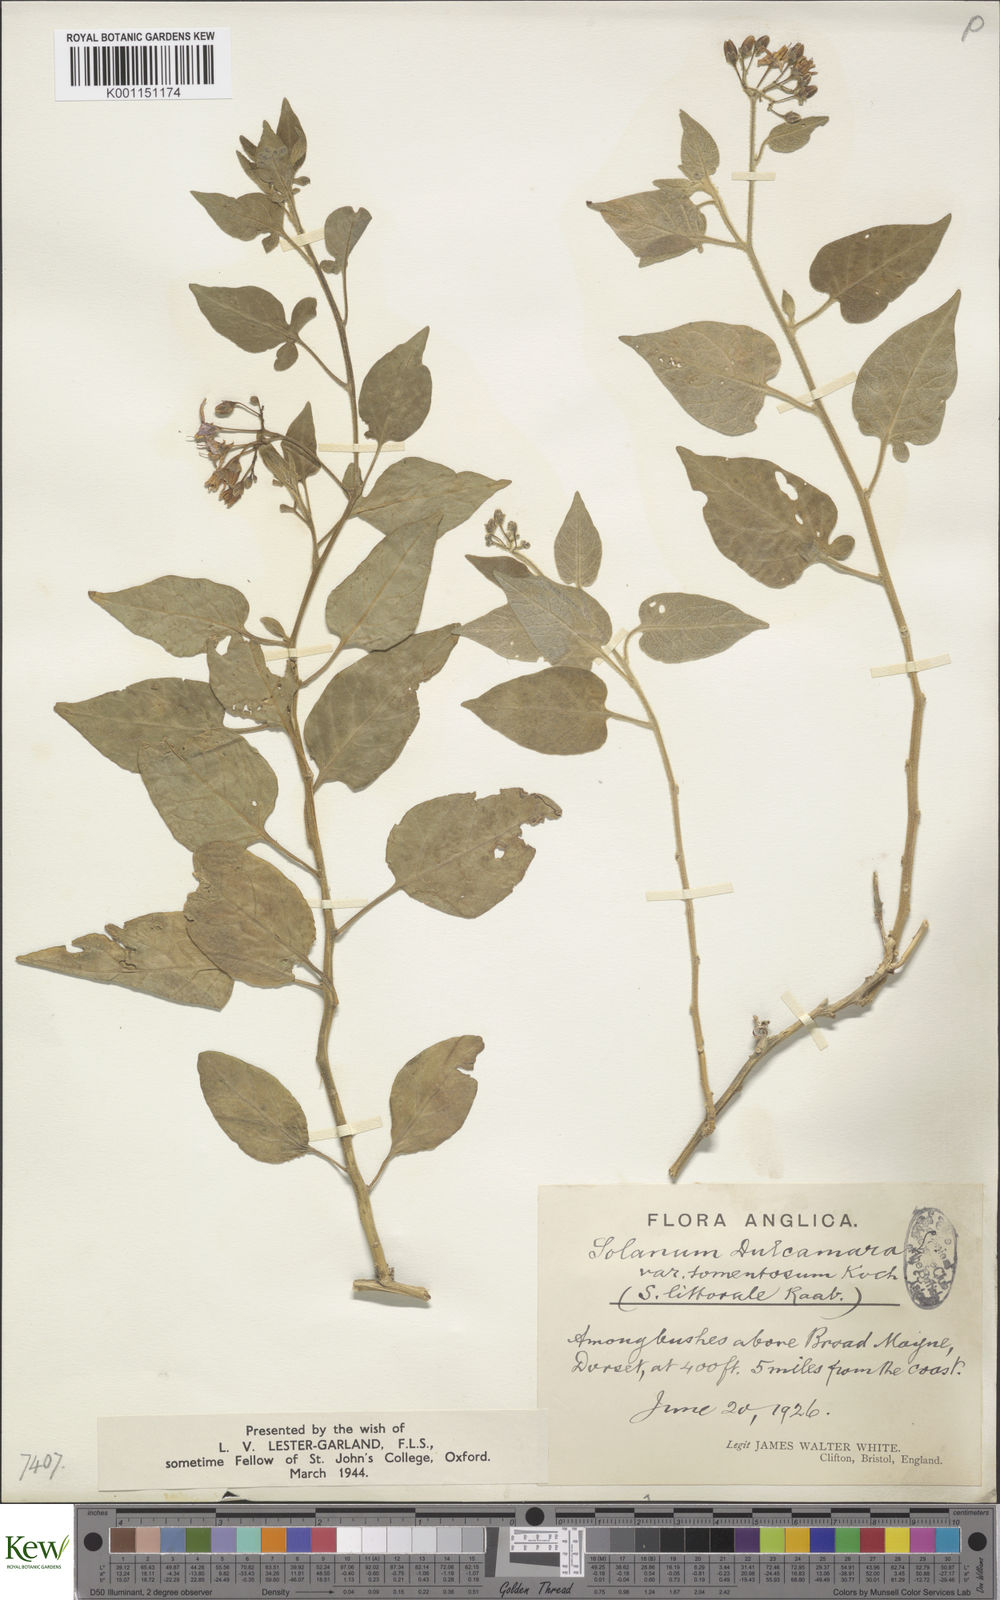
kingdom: Plantae
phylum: Tracheophyta
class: Magnoliopsida
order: Solanales
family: Solanaceae
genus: Solanum
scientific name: Solanum dulcamara
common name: Climbing nightshade
